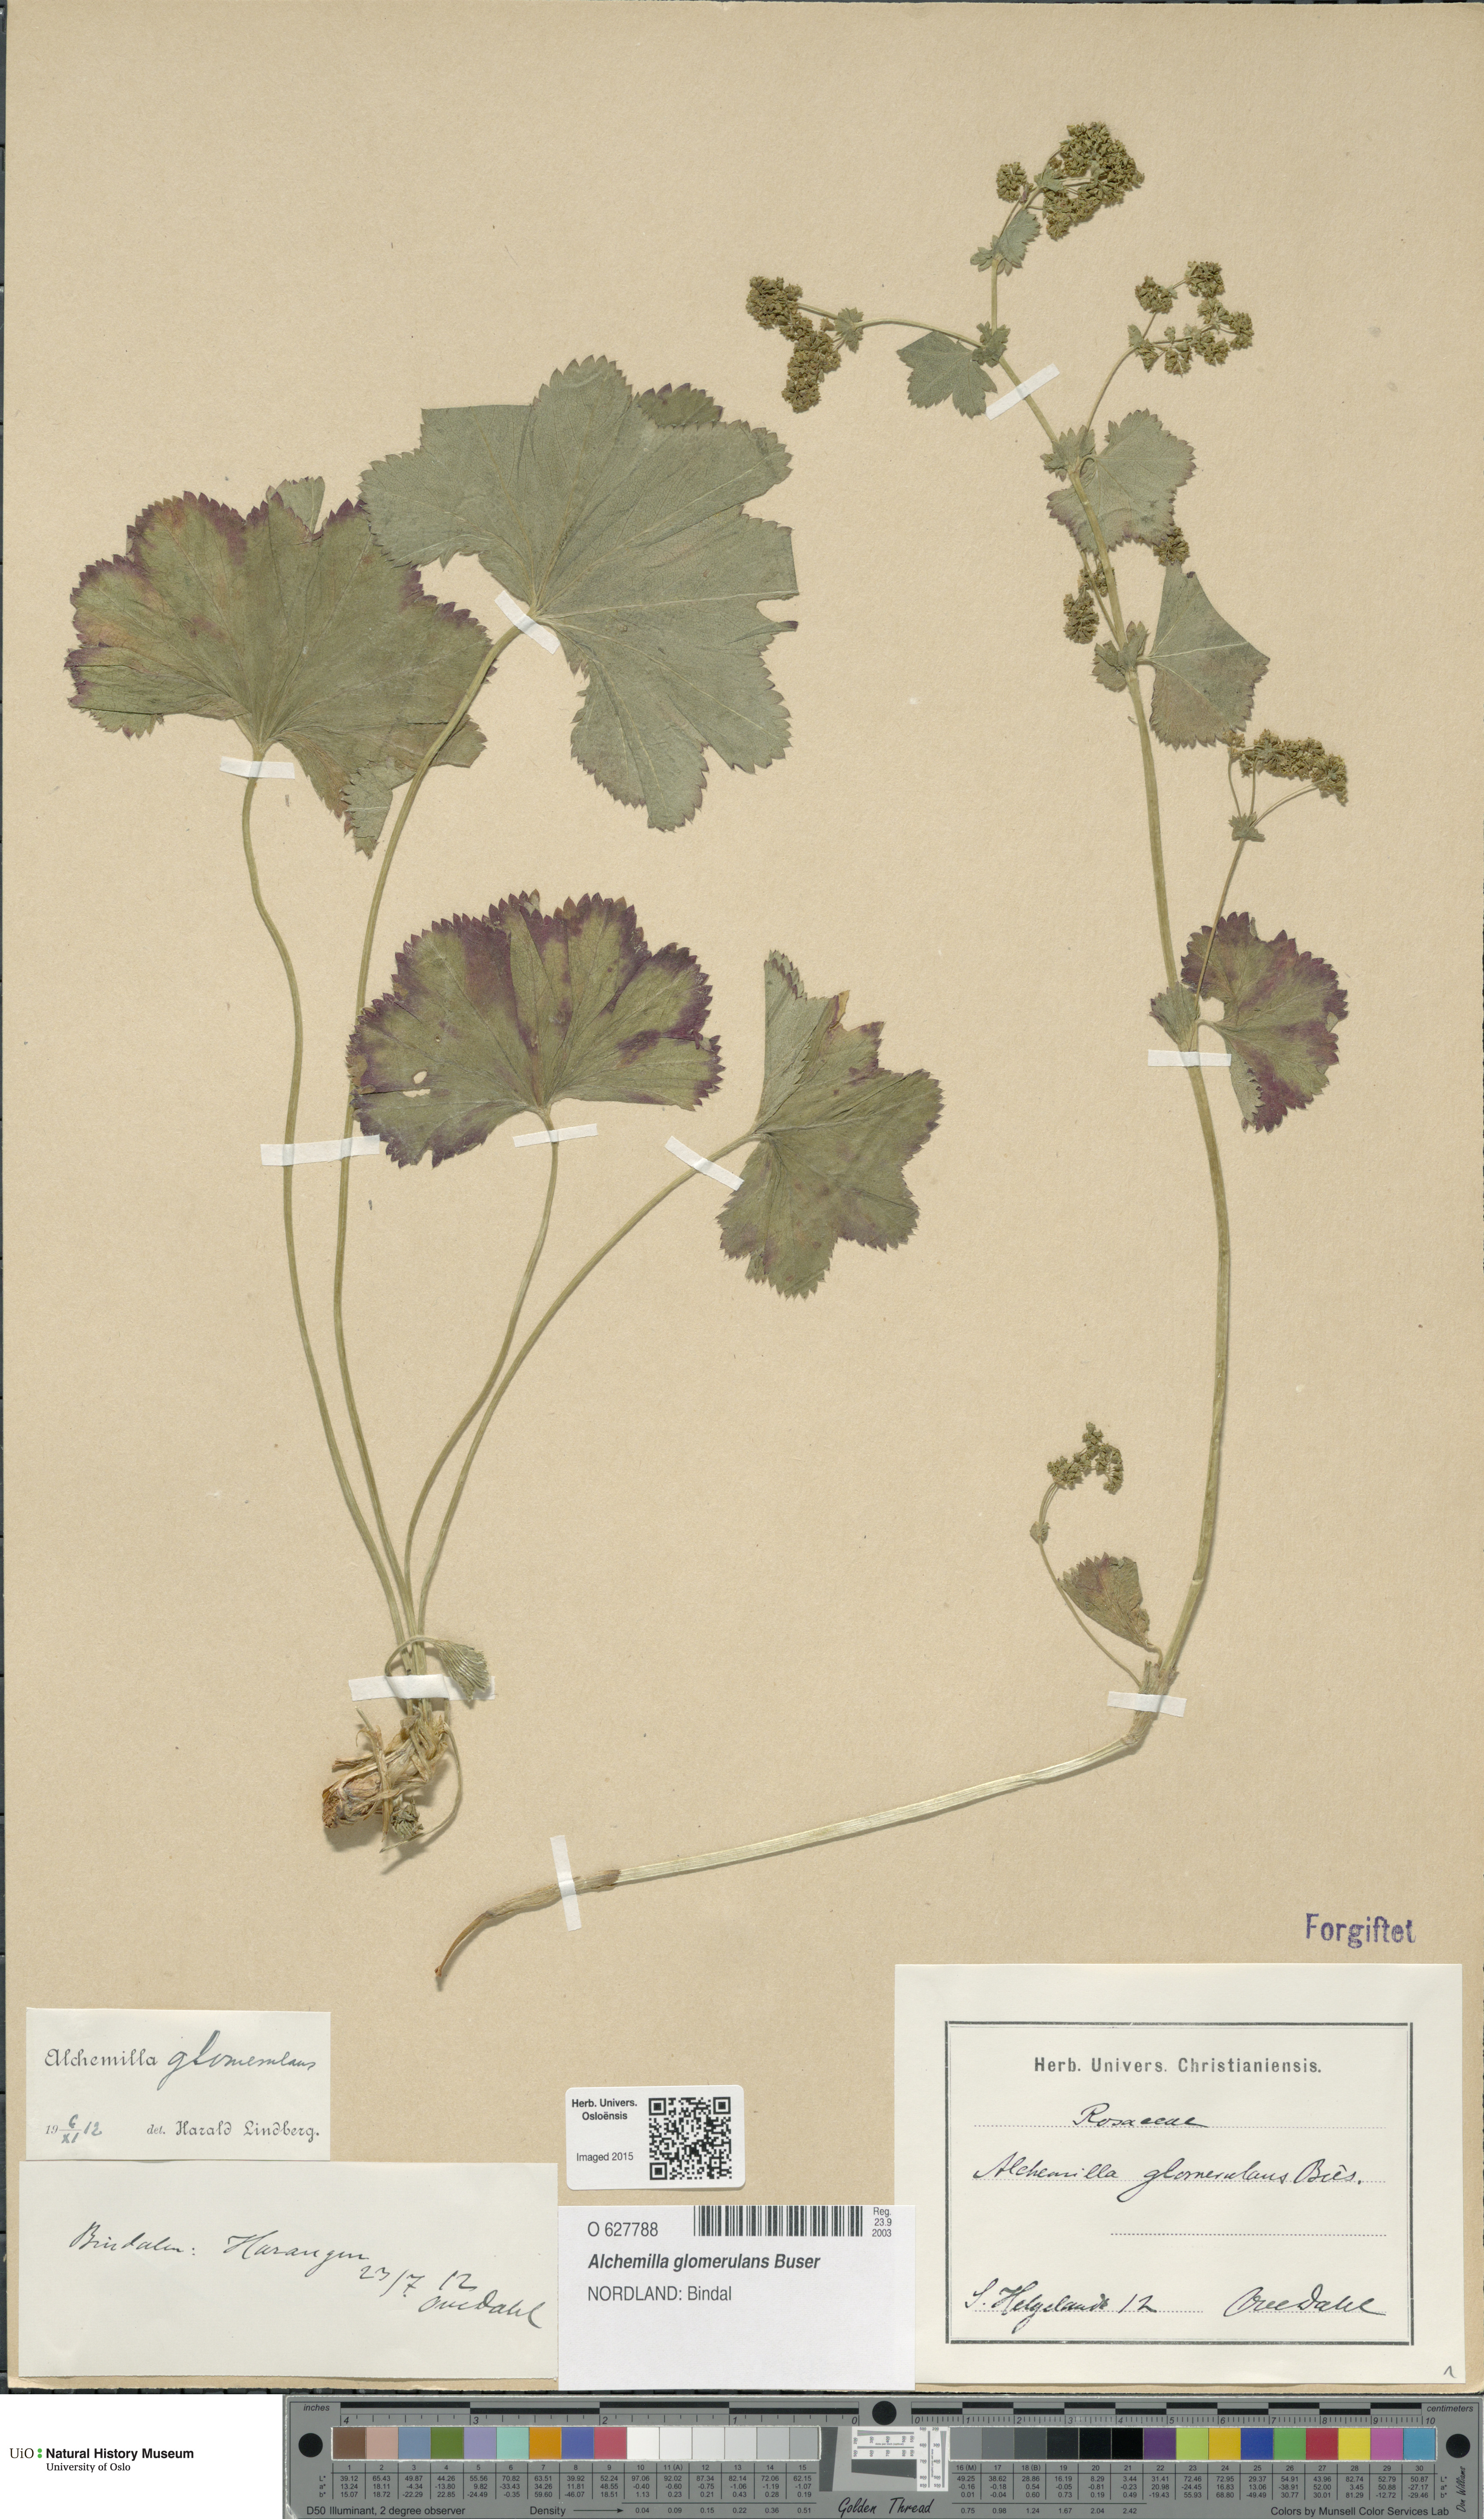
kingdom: Plantae
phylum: Tracheophyta
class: Magnoliopsida
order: Rosales
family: Rosaceae
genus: Alchemilla
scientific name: Alchemilla glomerulans
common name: Clustered lady's mantle
